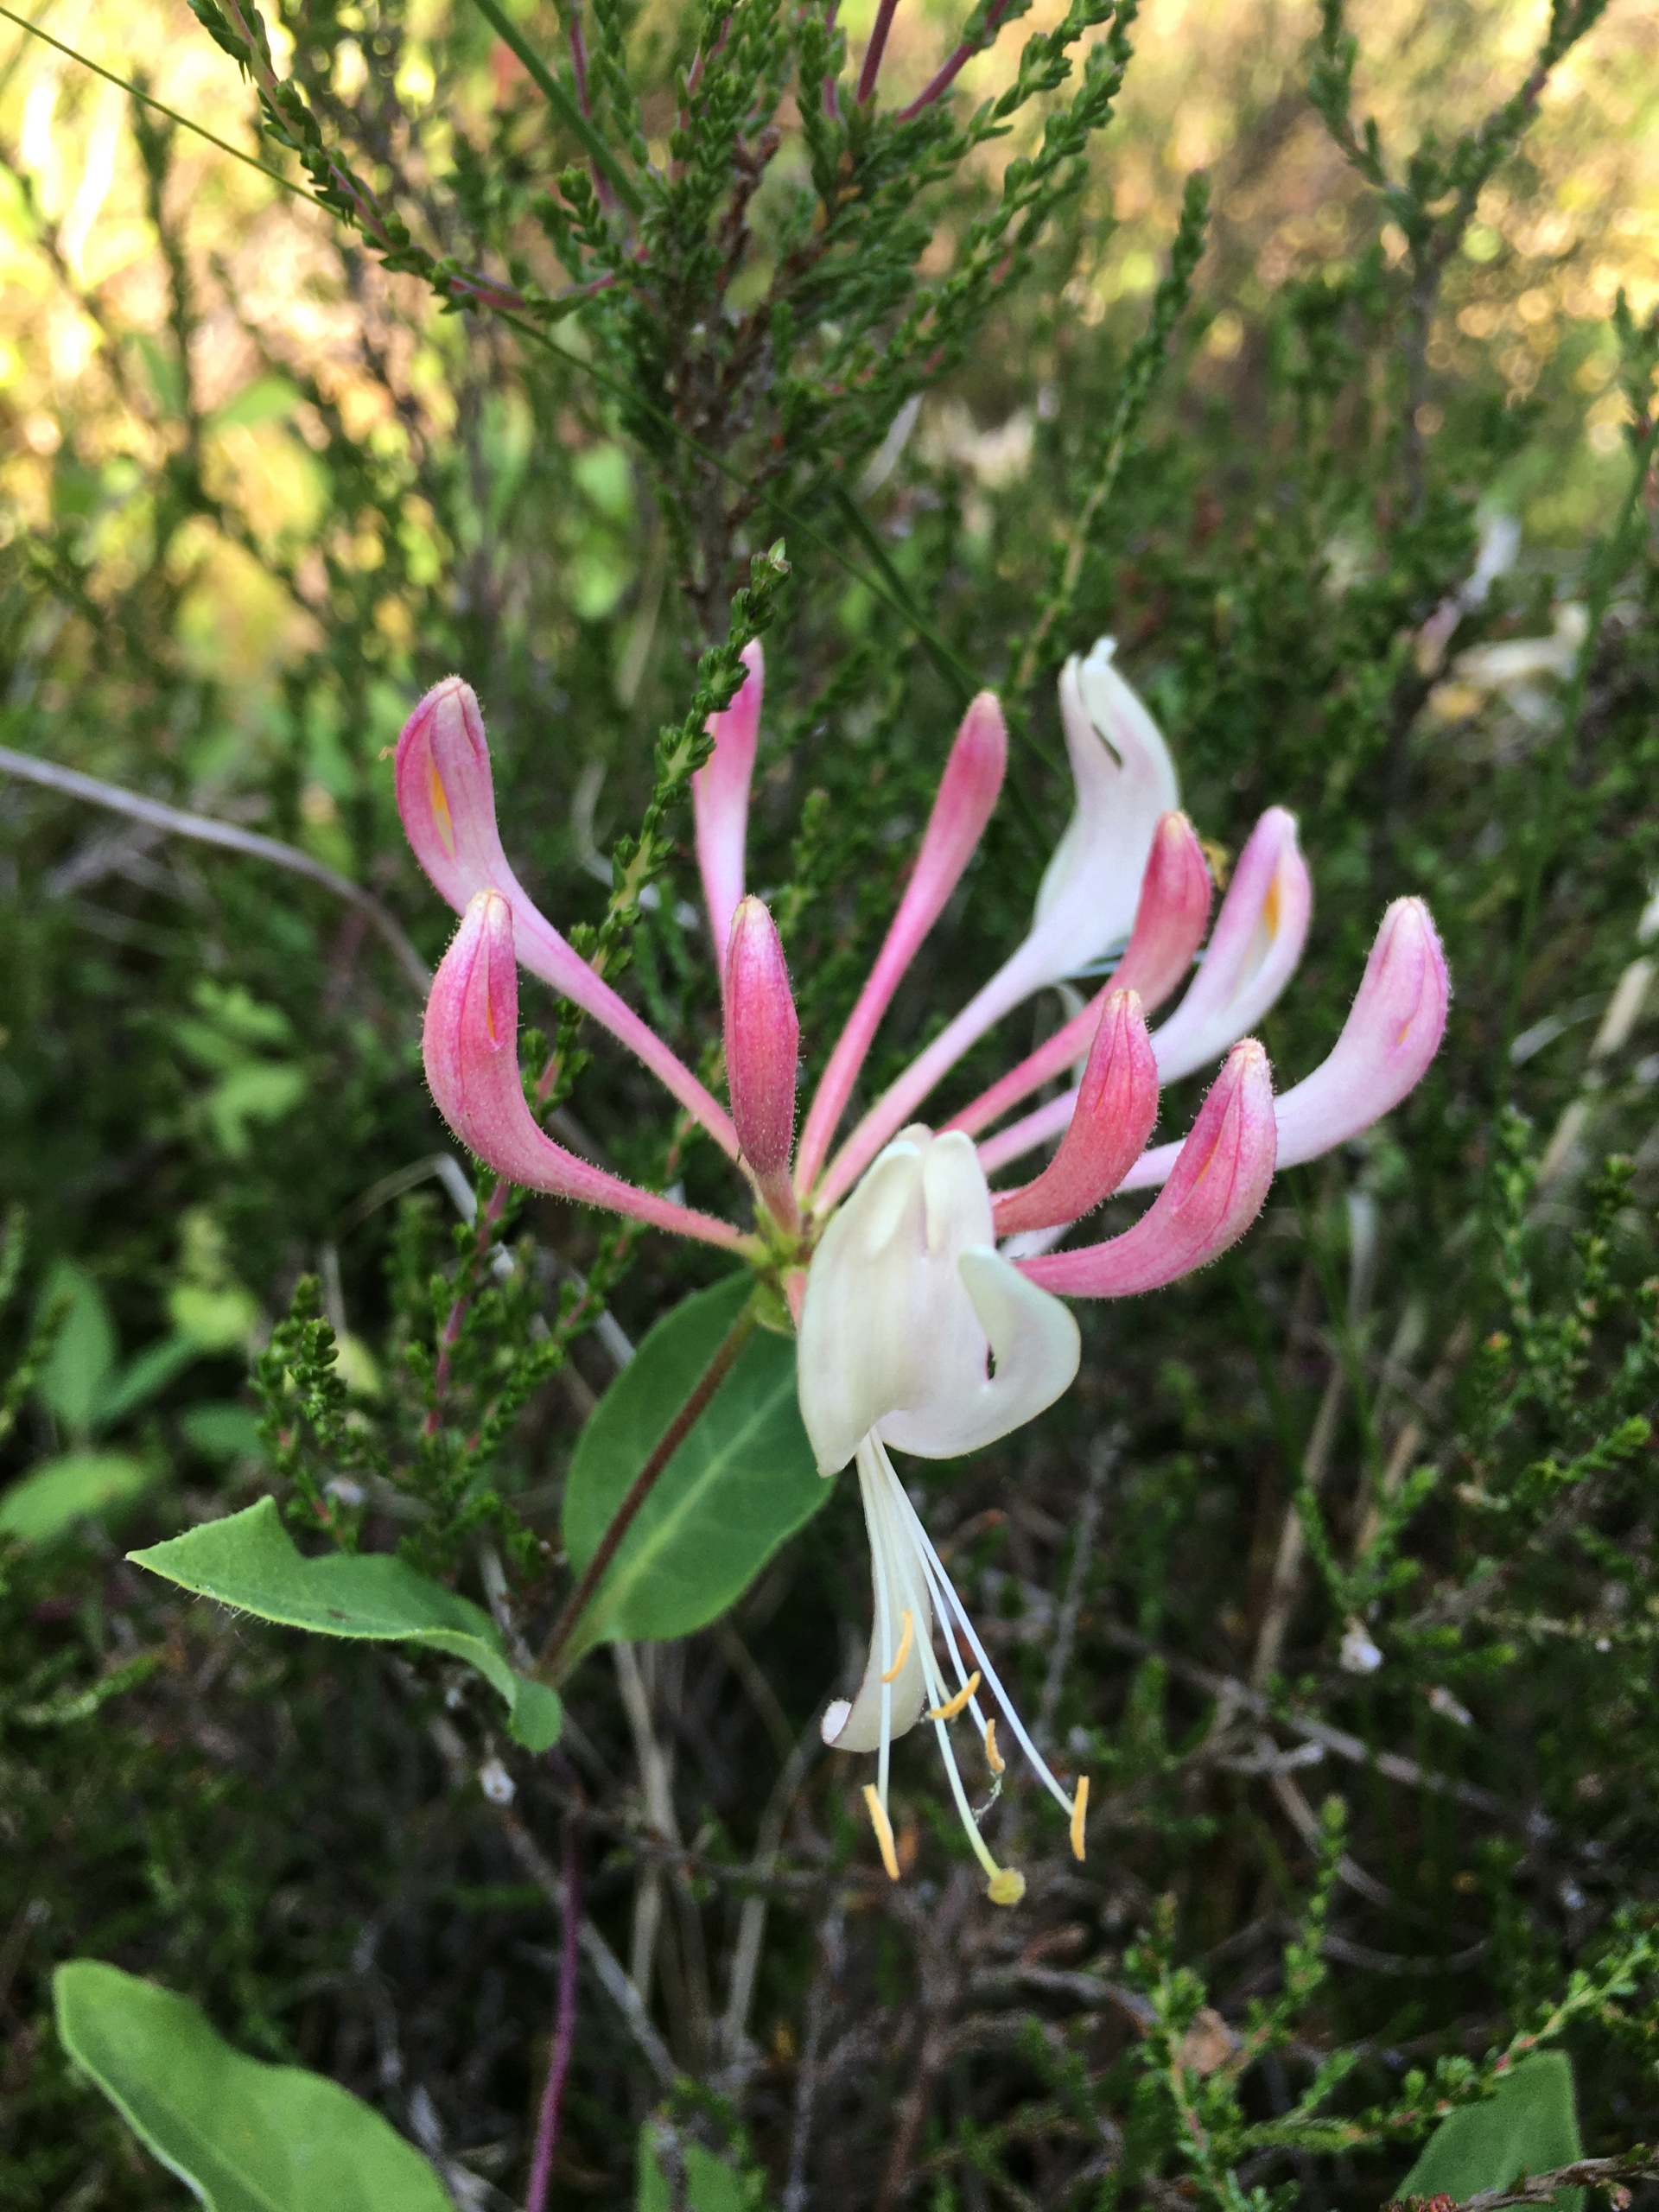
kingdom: Plantae
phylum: Tracheophyta
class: Magnoliopsida
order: Dipsacales
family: Caprifoliaceae
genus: Lonicera
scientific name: Lonicera periclymenum
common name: Almindelig gedeblad
